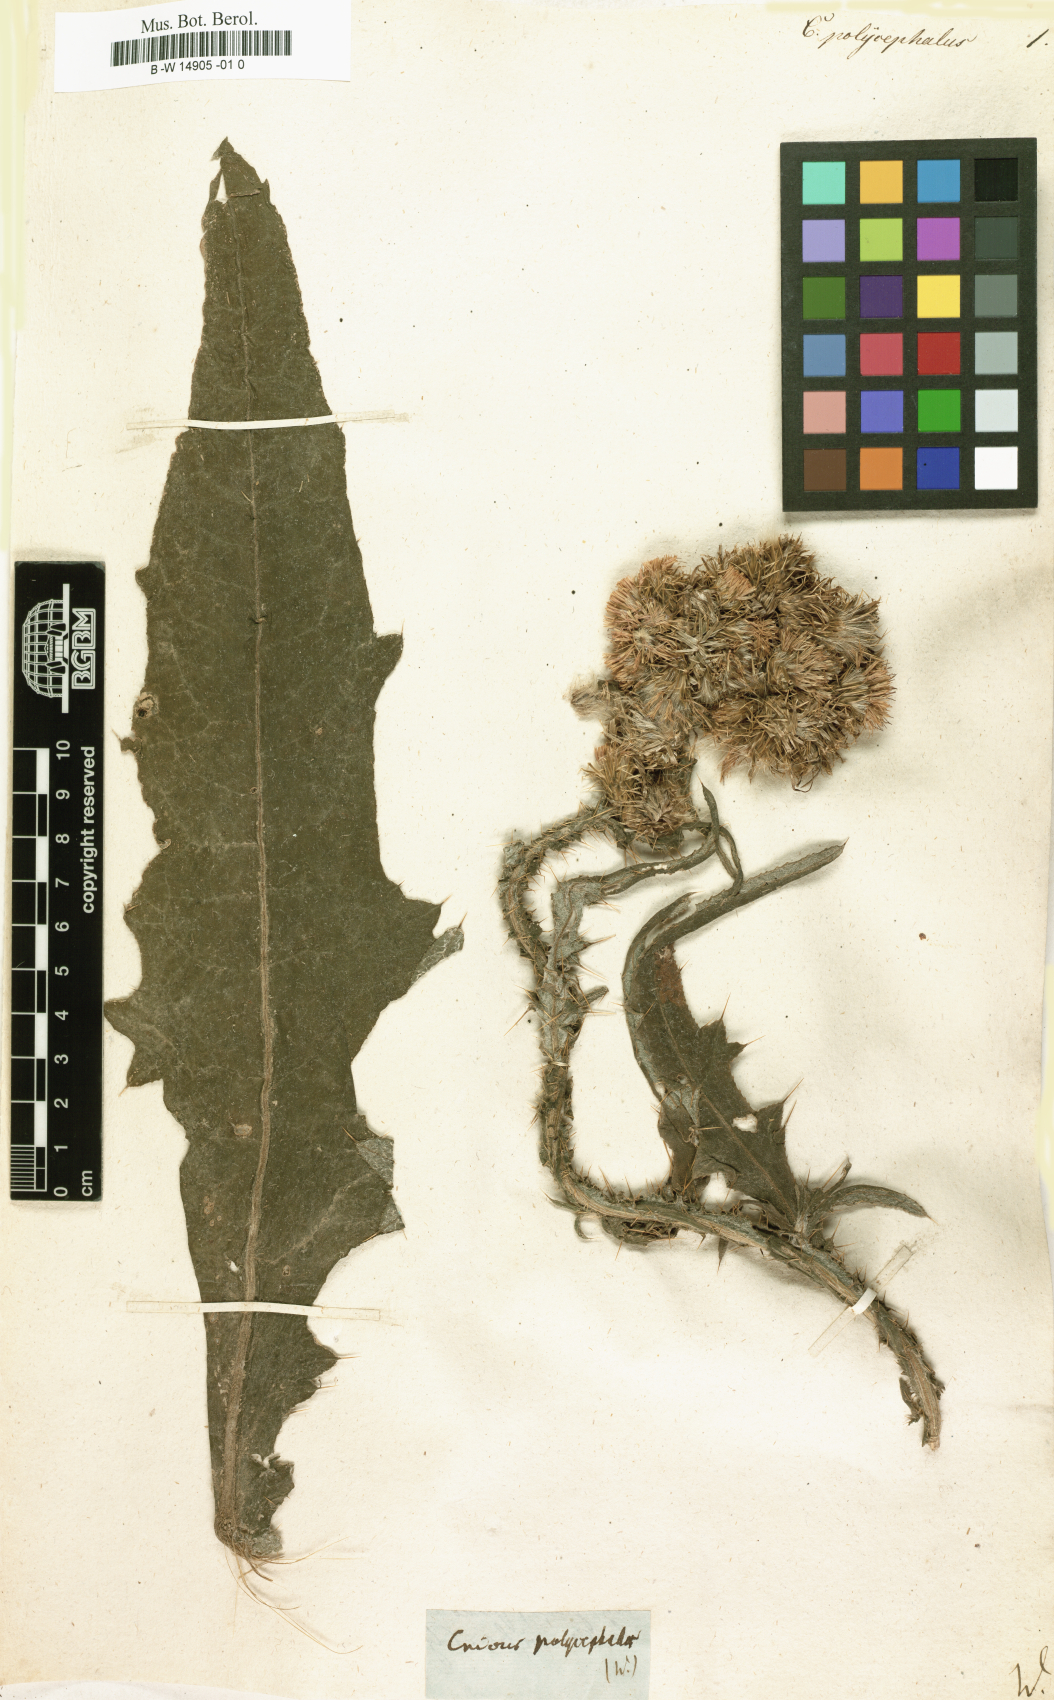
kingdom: Plantae
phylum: Tracheophyta
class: Magnoliopsida
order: Asterales
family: Asteraceae
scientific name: Asteraceae
